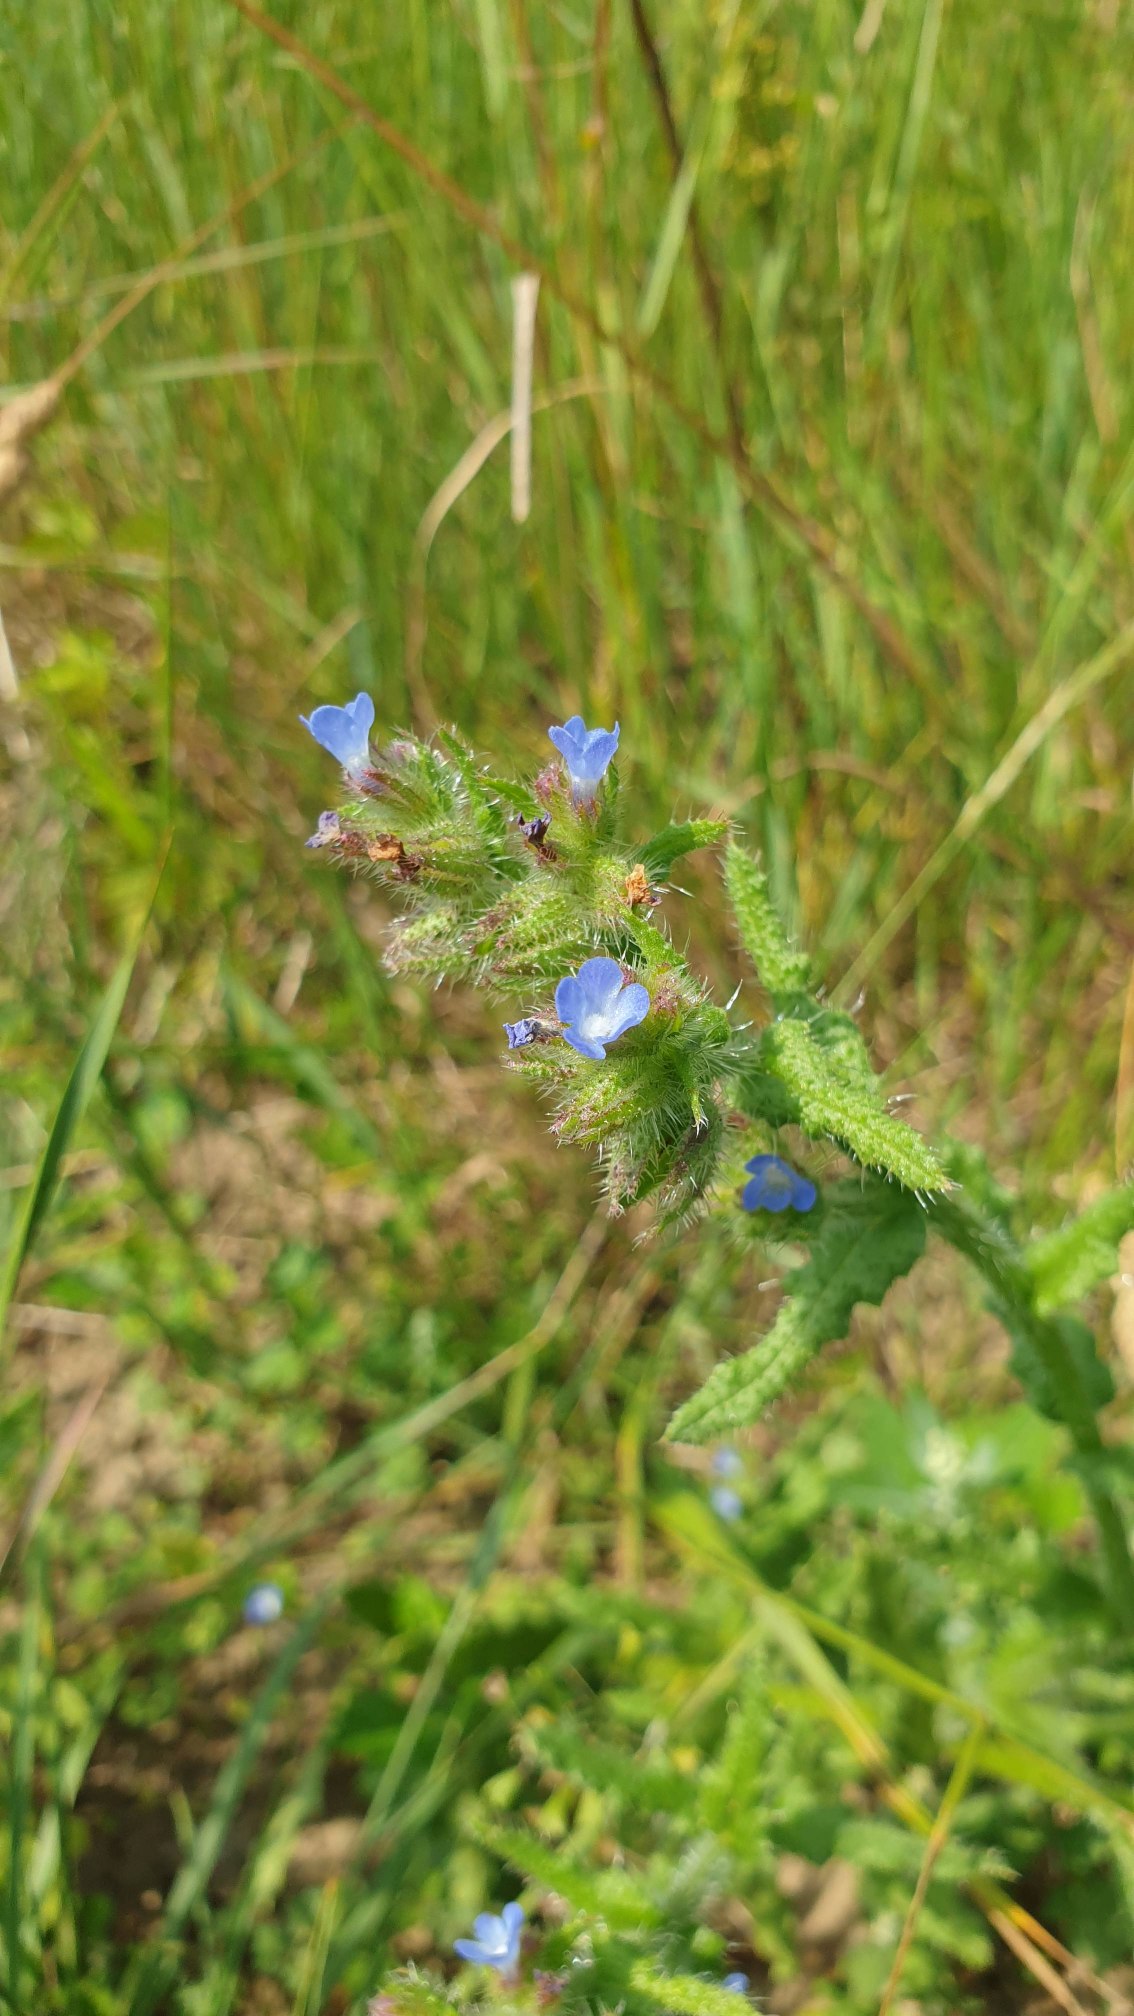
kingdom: Plantae
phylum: Tracheophyta
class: Magnoliopsida
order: Boraginales
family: Boraginaceae
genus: Lycopsis
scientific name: Lycopsis arvensis
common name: Krumhals
